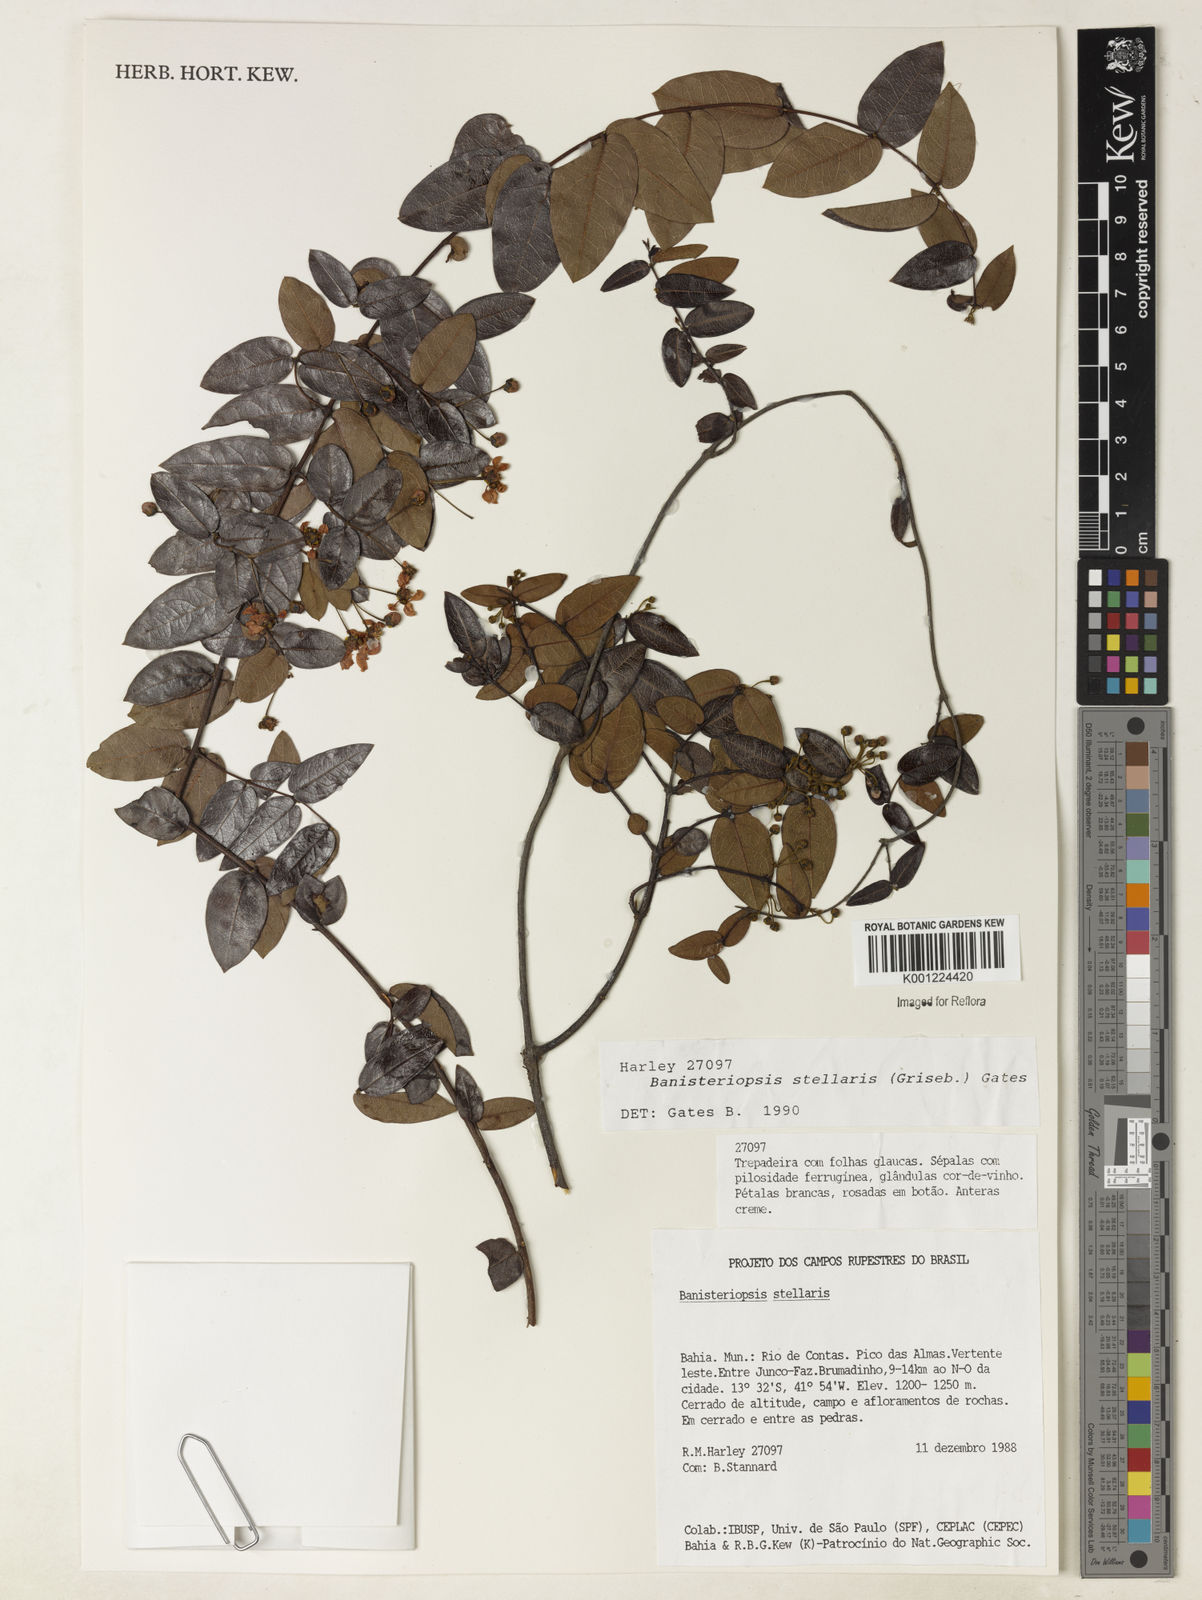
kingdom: Plantae
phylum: Tracheophyta
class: Magnoliopsida
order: Malpighiales
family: Malpighiaceae
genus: Banisteriopsis
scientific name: Banisteriopsis stellaris
